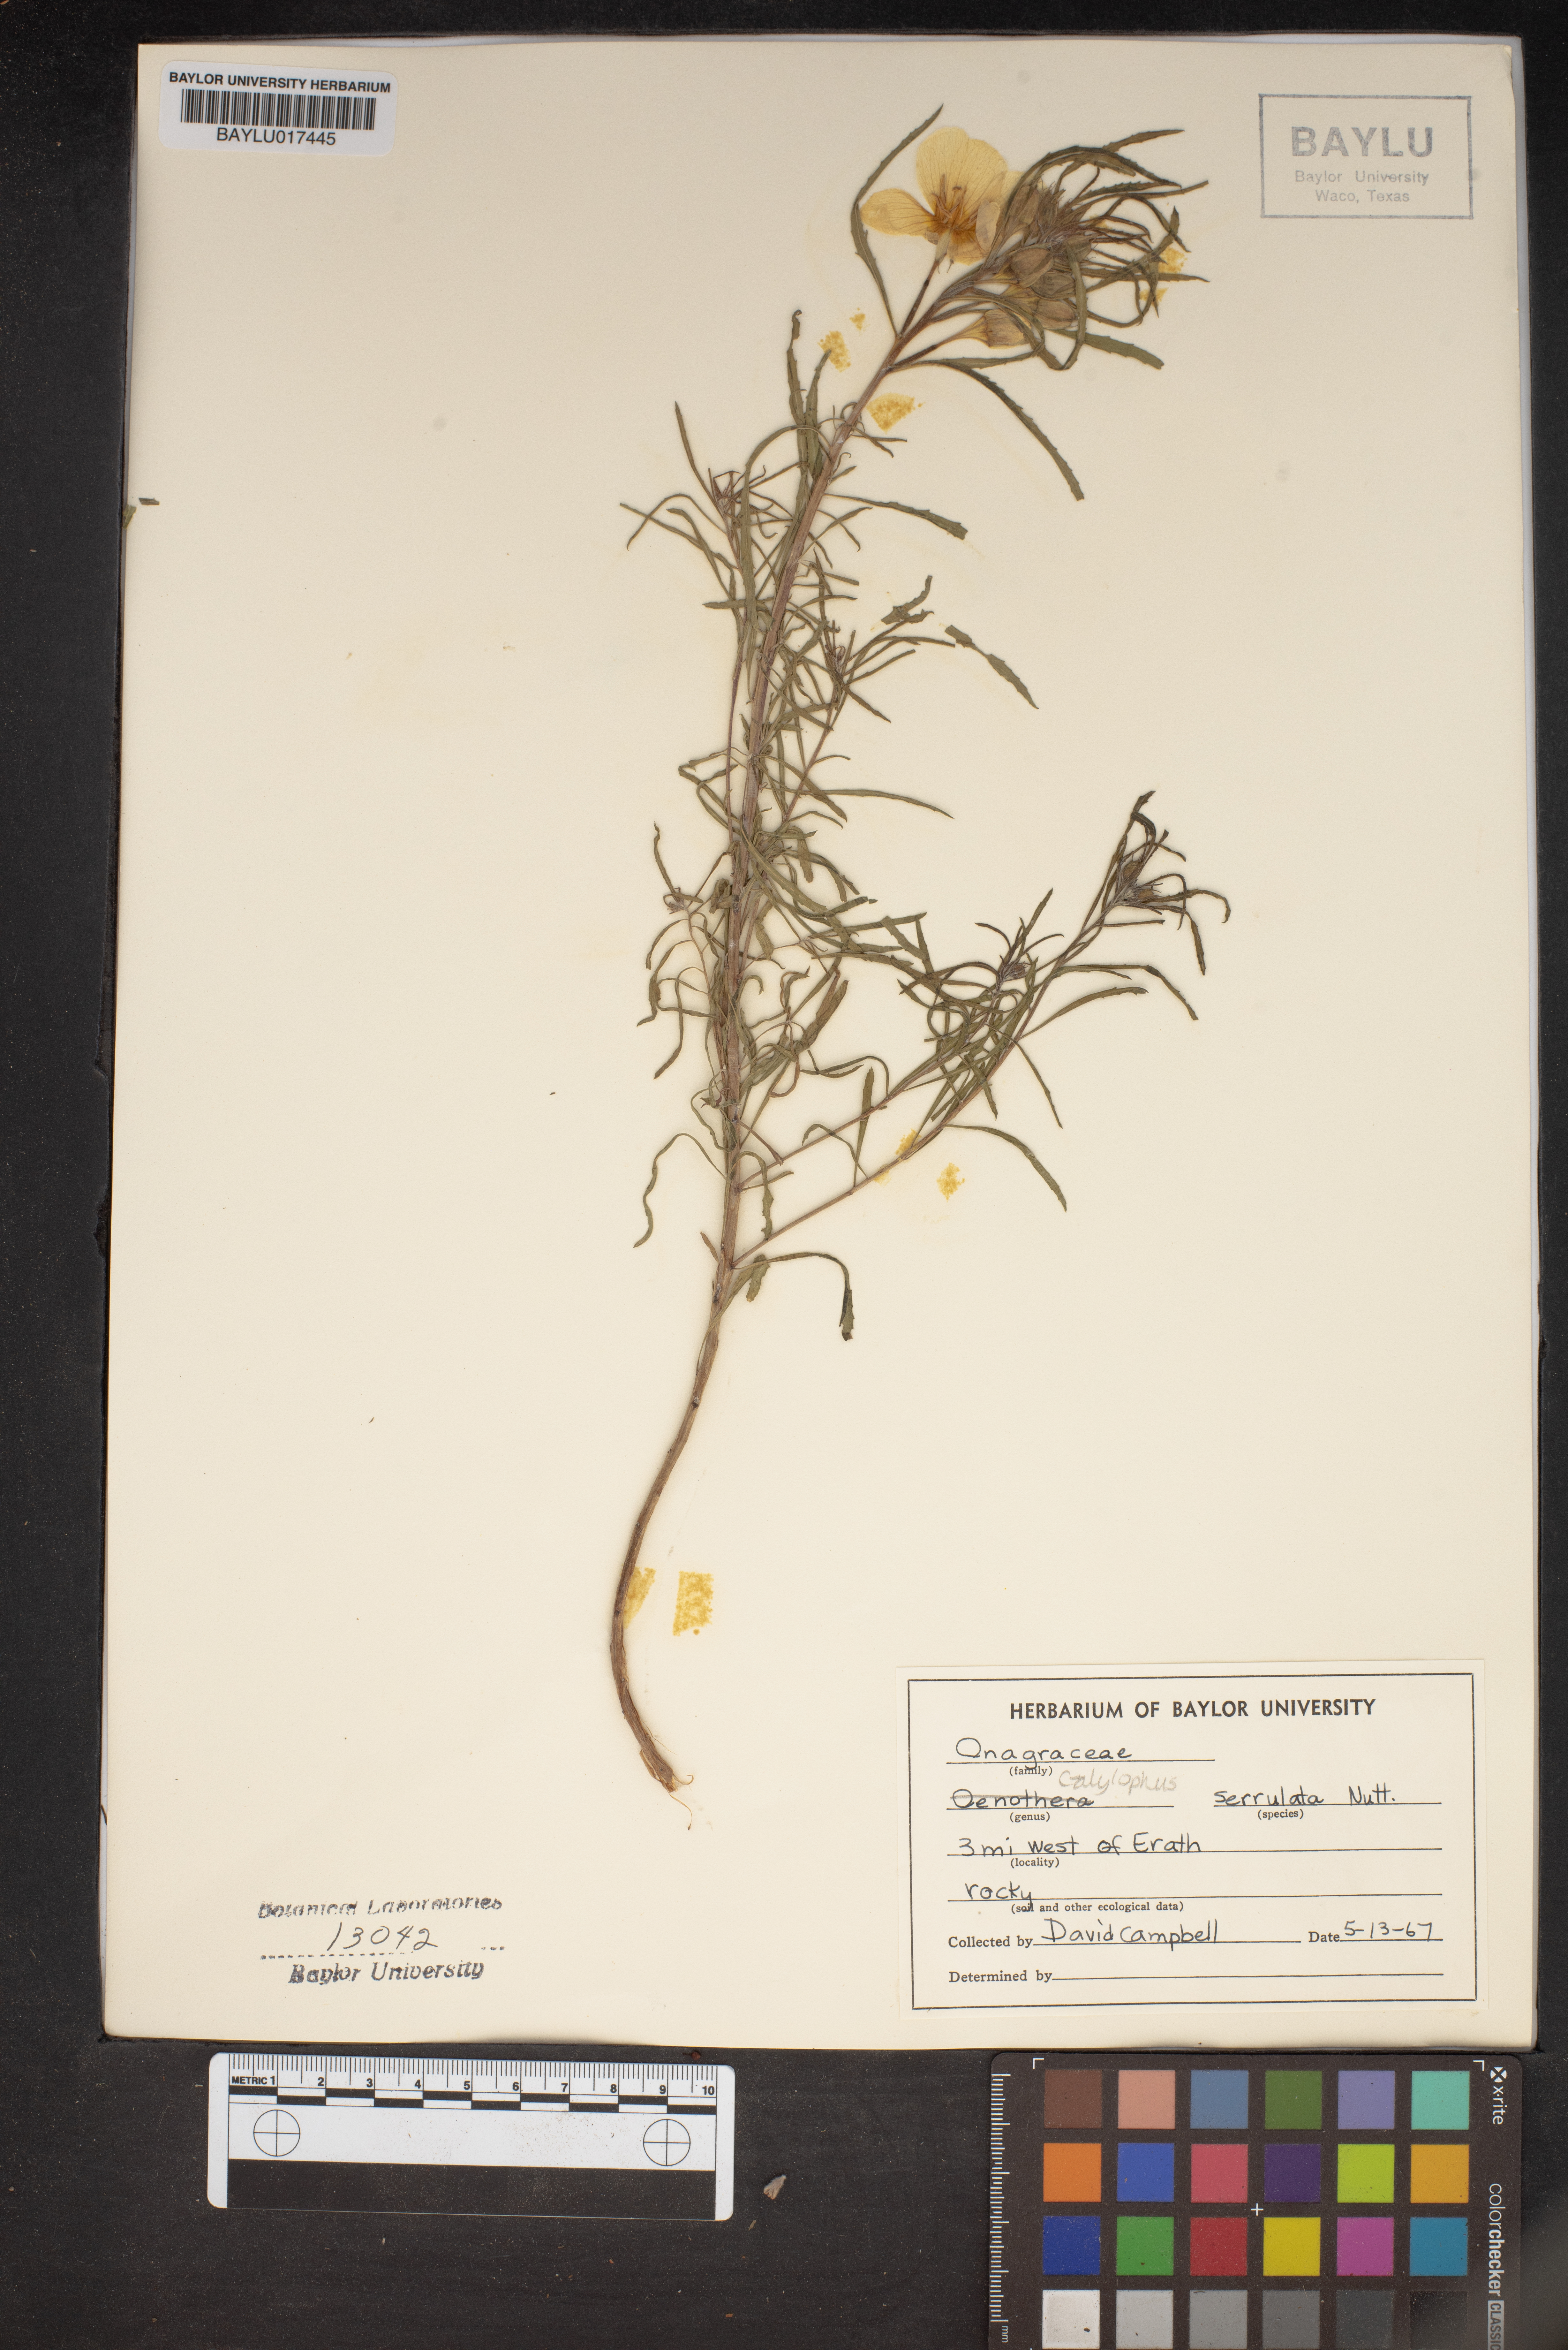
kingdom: Plantae
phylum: Tracheophyta
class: Magnoliopsida
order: Myrtales
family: Onagraceae
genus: Oenothera
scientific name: Oenothera serrulata
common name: Half-shrub calylophus
